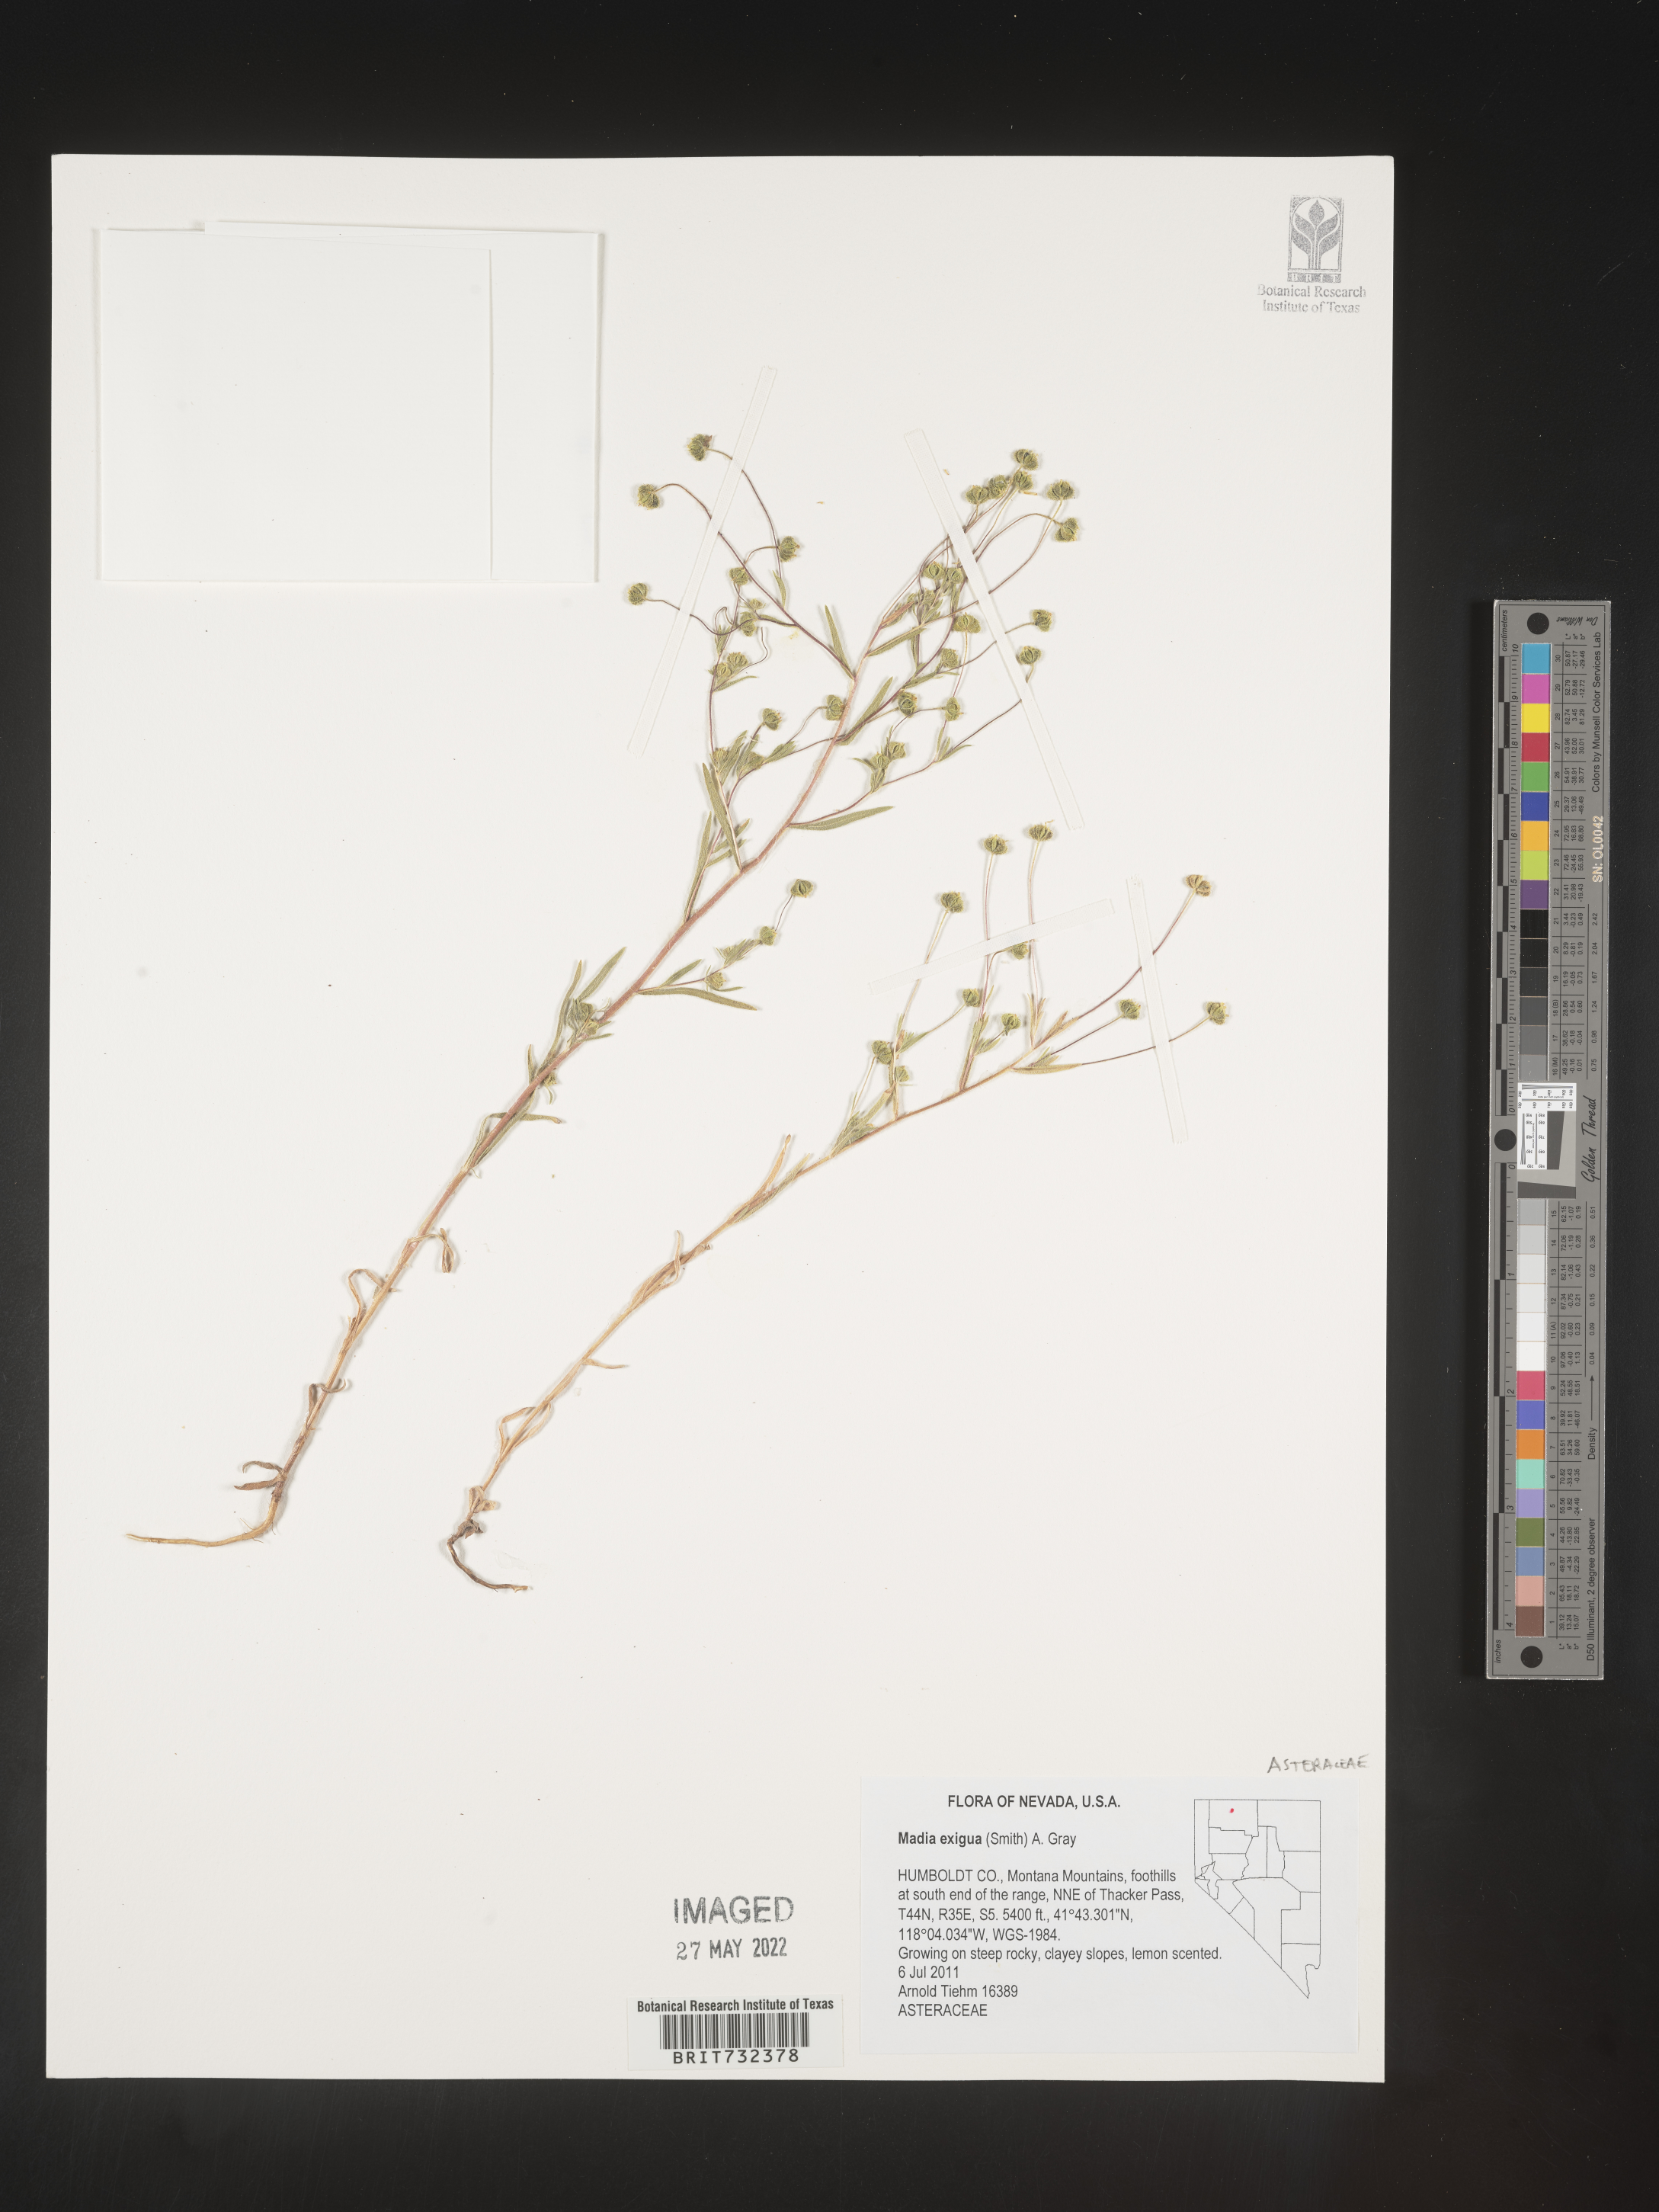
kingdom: Plantae
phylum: Tracheophyta
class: Magnoliopsida
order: Asterales
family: Asteraceae
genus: Madia
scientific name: Madia
